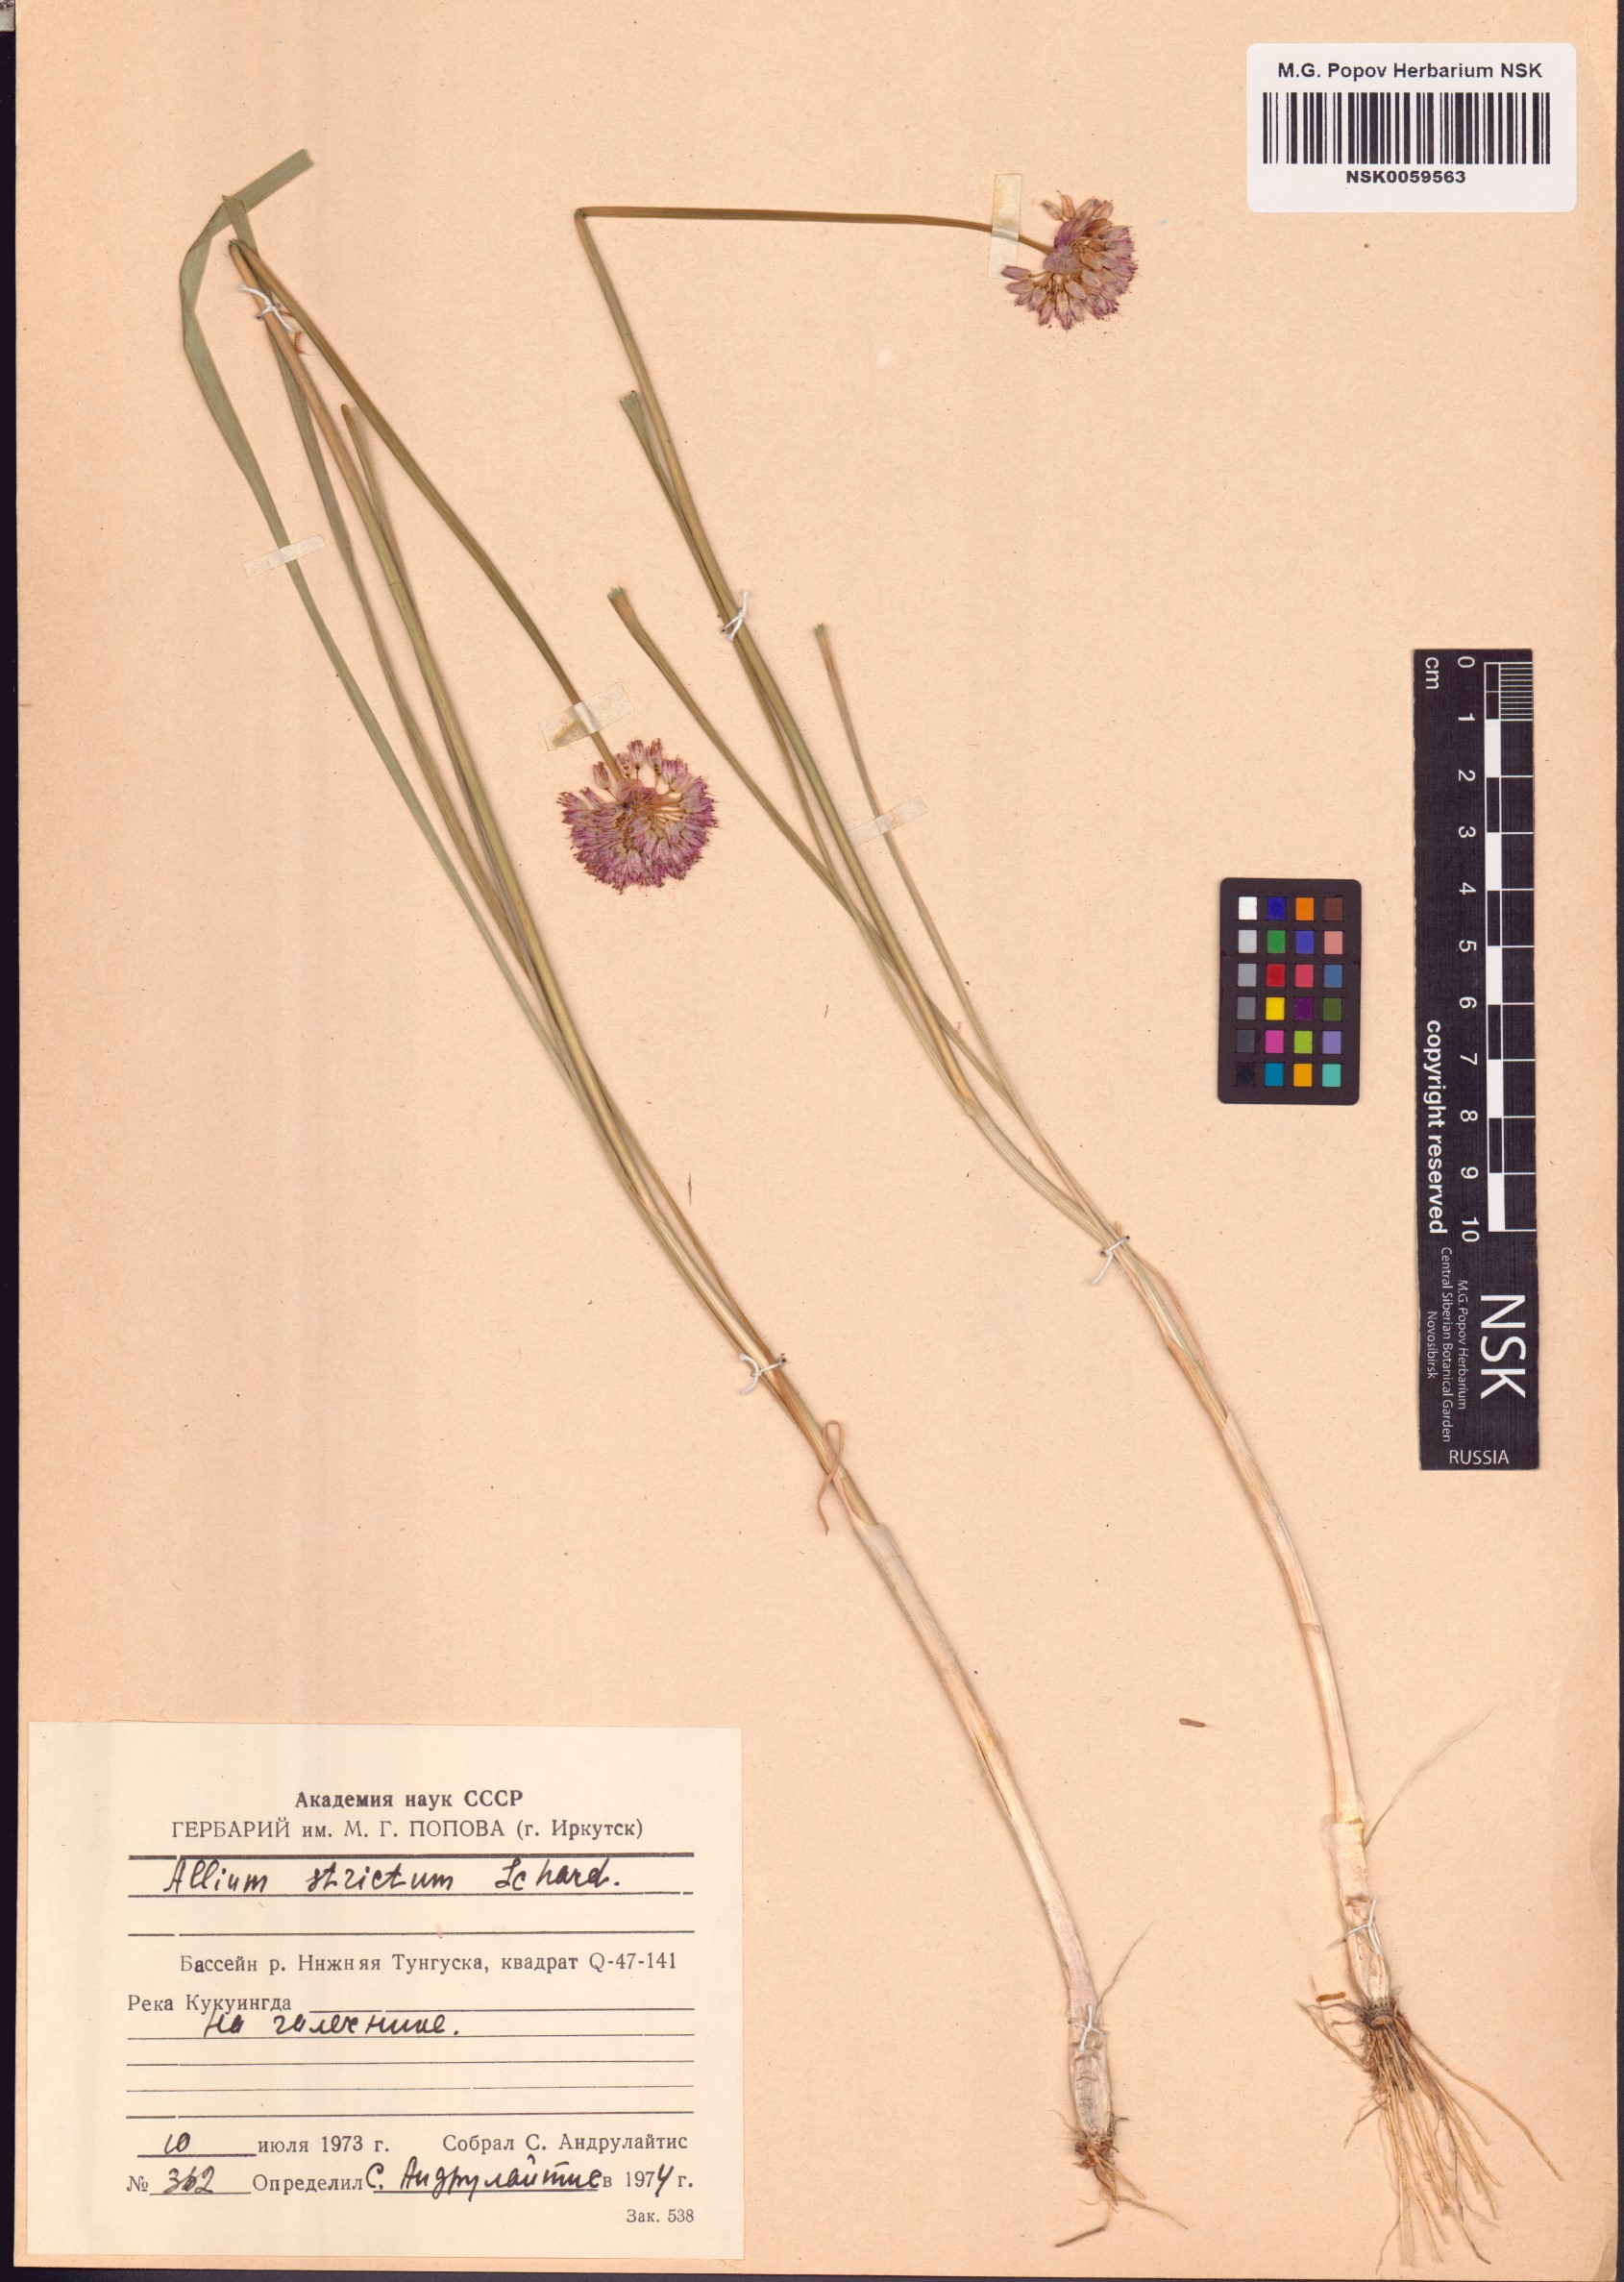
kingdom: Plantae
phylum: Tracheophyta
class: Liliopsida
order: Asparagales
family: Amaryllidaceae
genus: Allium
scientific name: Allium strictum
